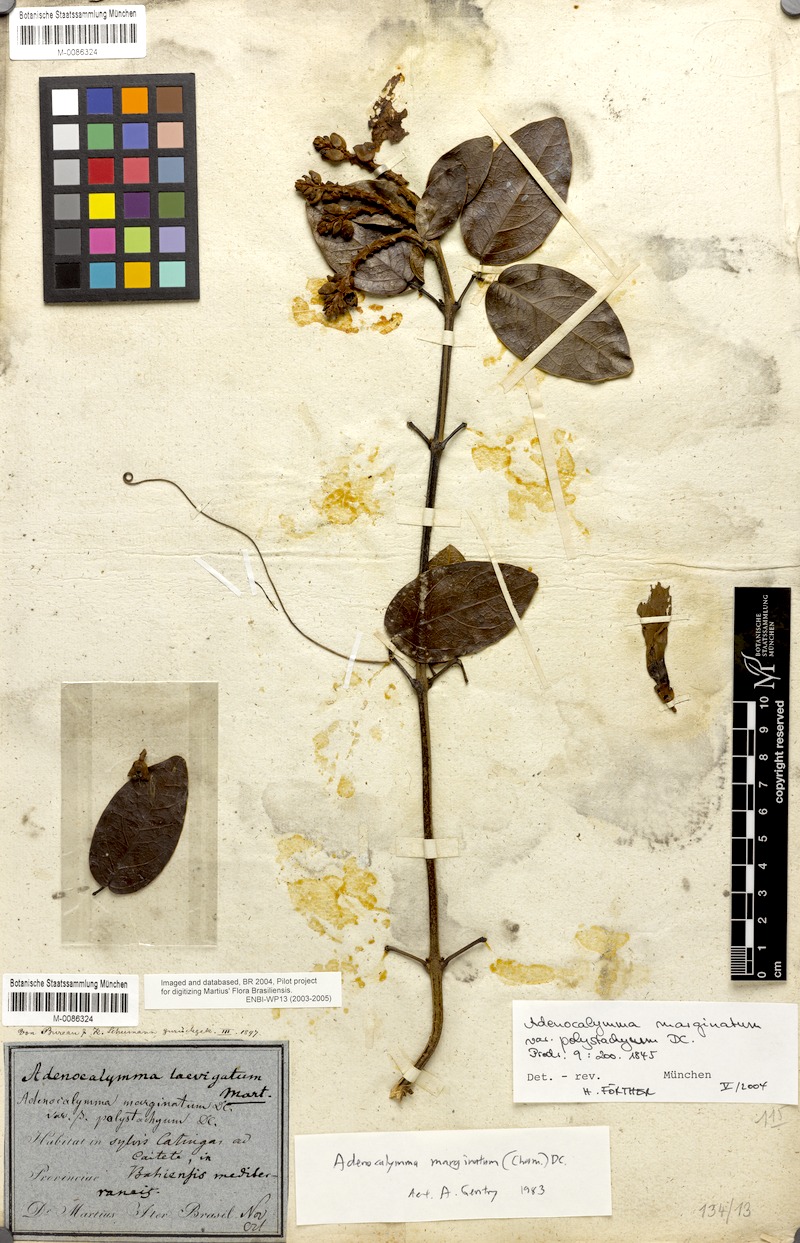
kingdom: Plantae
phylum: Tracheophyta
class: Magnoliopsida
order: Lamiales
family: Bignoniaceae
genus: Adenocalymma
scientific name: Adenocalymma marginatum
